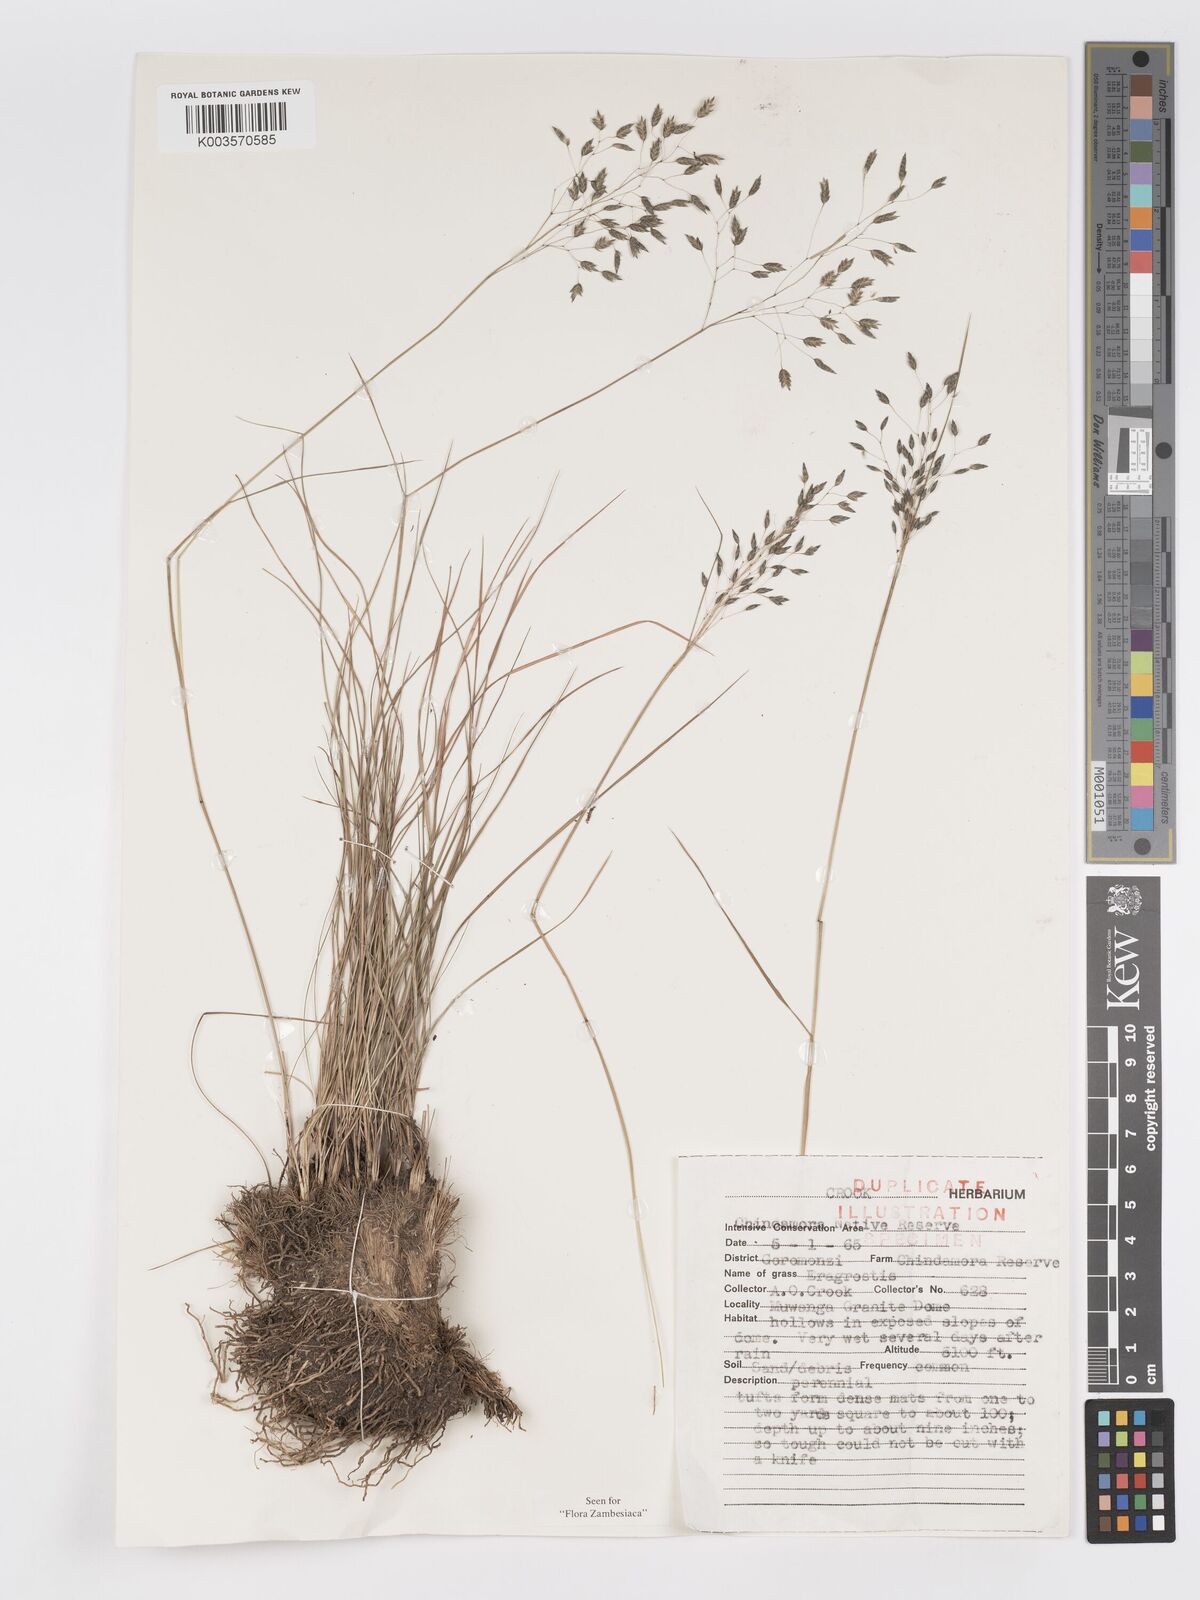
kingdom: Plantae
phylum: Tracheophyta
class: Liliopsida
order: Poales
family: Poaceae
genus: Eragrostis
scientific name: Eragrostis paradoxa
